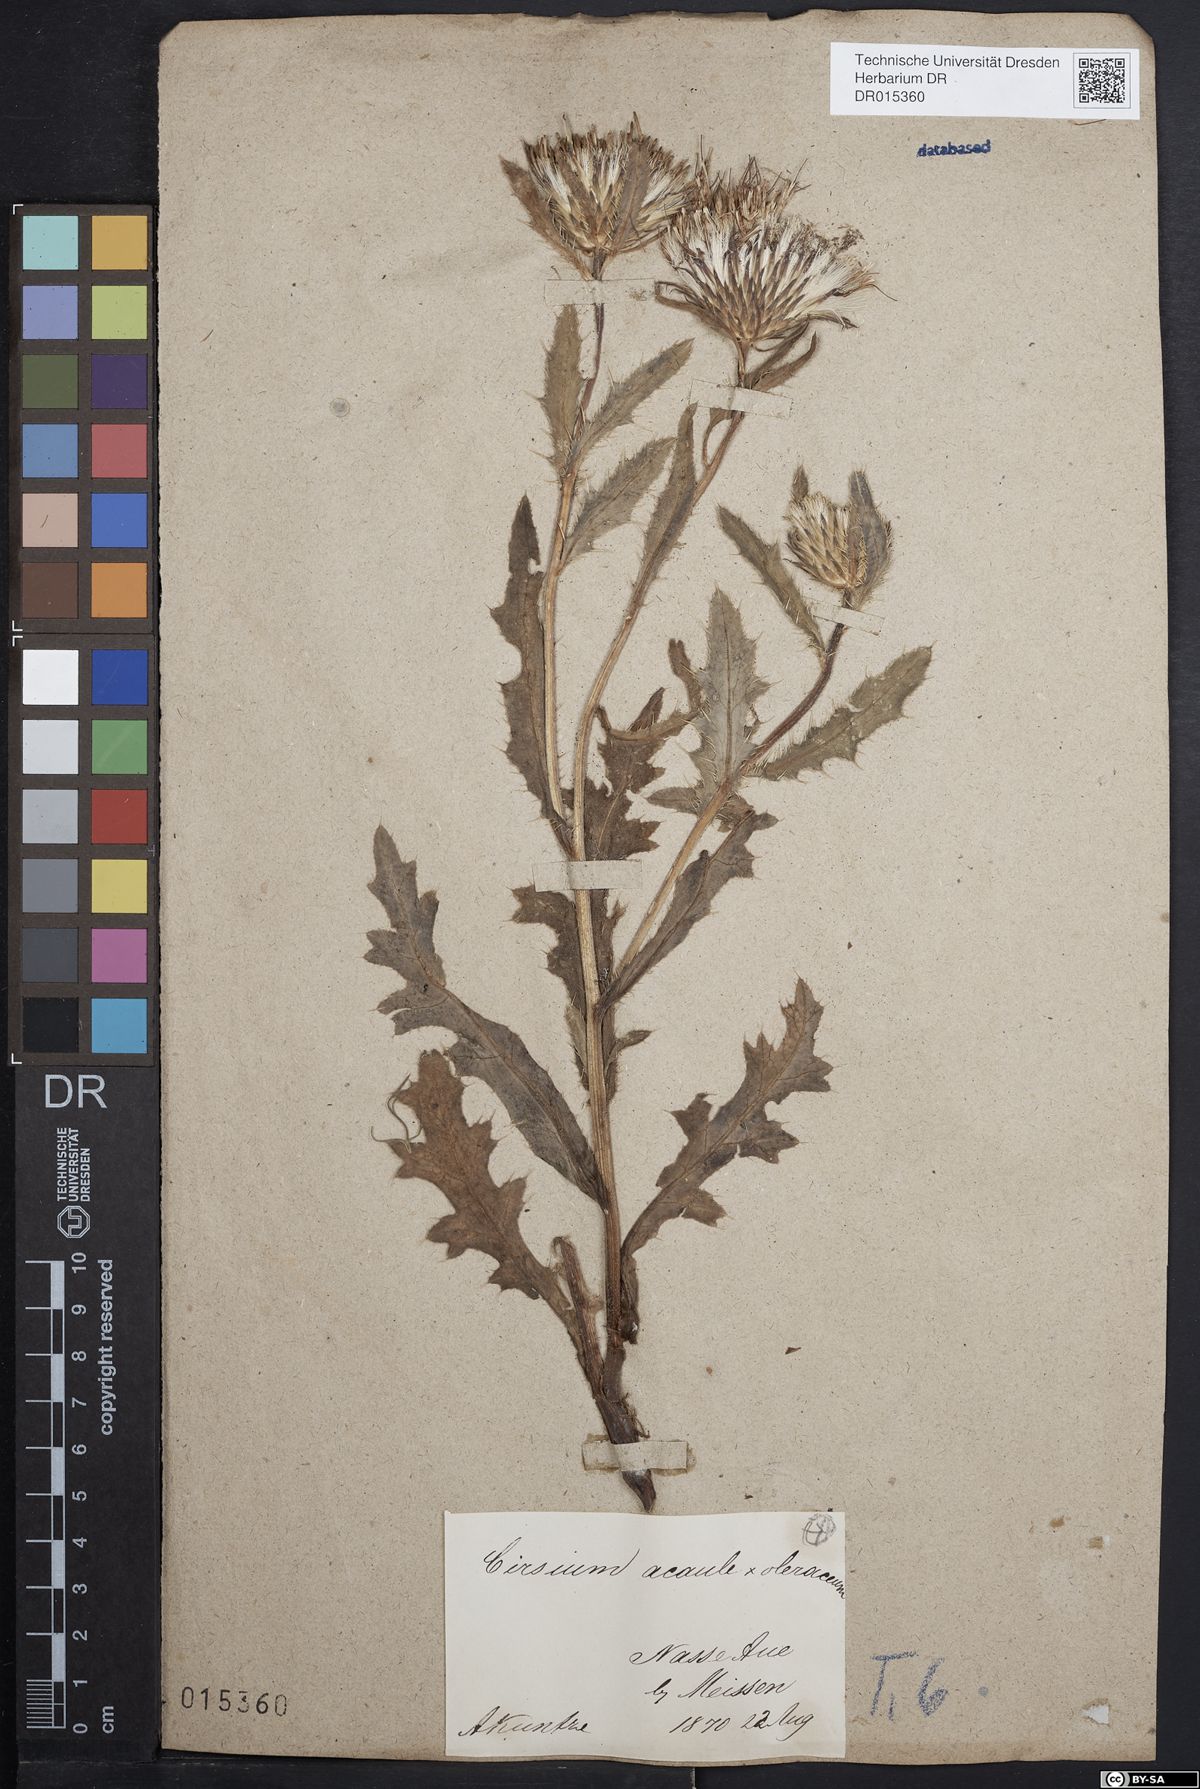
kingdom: Plantae
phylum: Tracheophyta
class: Magnoliopsida
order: Asterales
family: Asteraceae
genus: Cirsium
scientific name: Cirsium rigens
